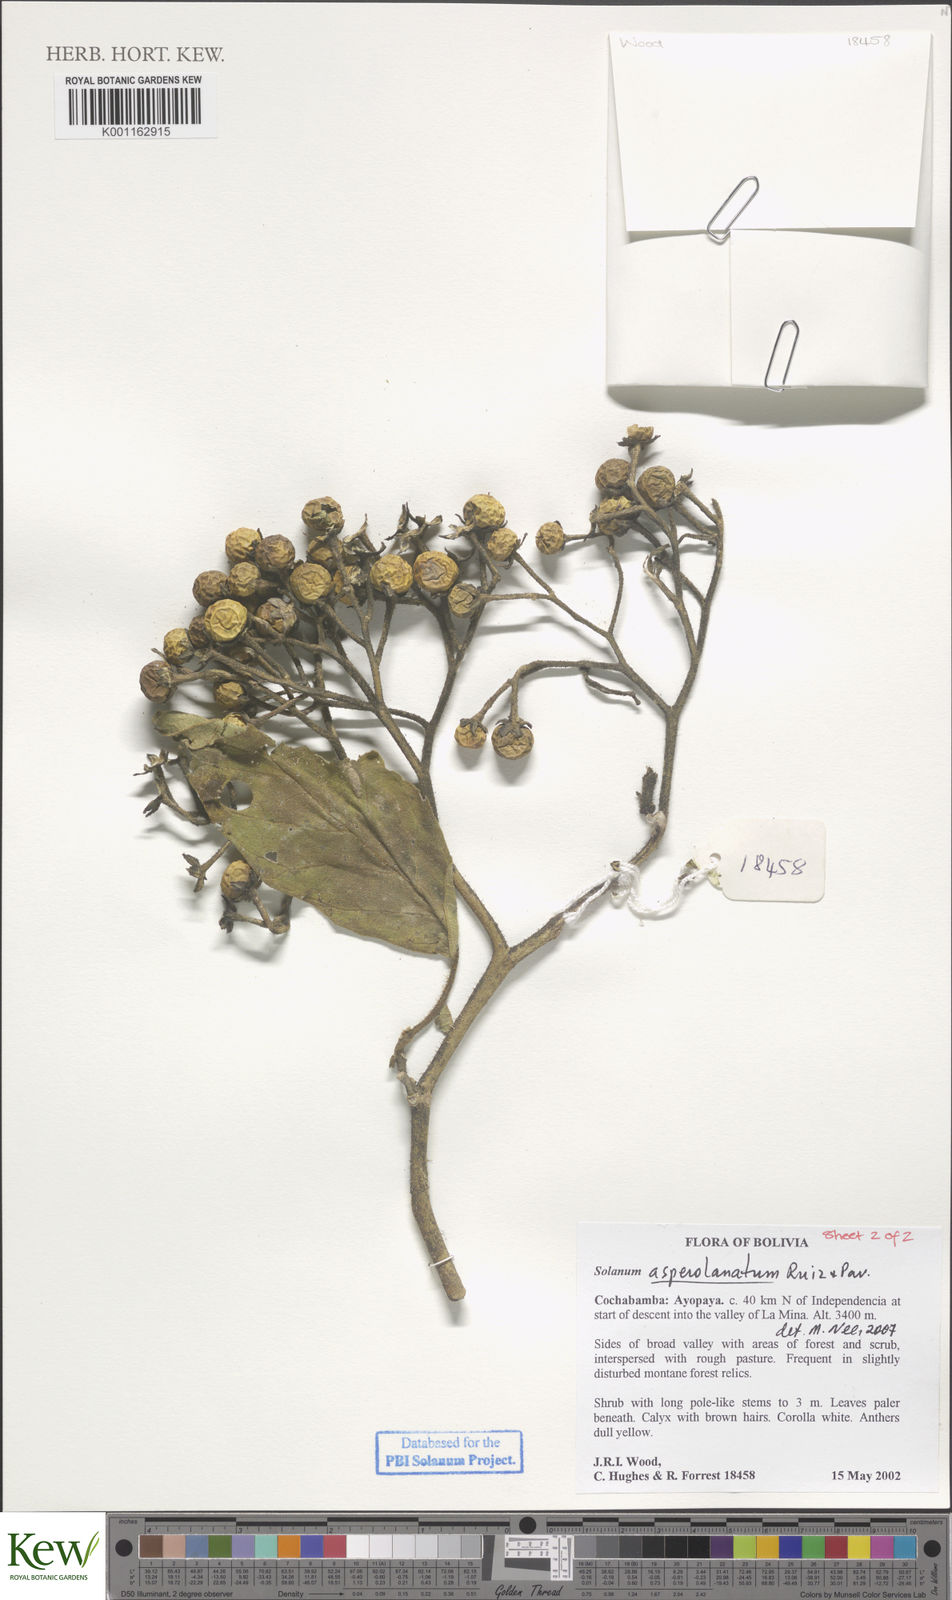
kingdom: Plantae
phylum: Tracheophyta
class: Magnoliopsida
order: Solanales
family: Solanaceae
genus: Solanum
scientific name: Solanum asperolanatum
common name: Devil's-fig
